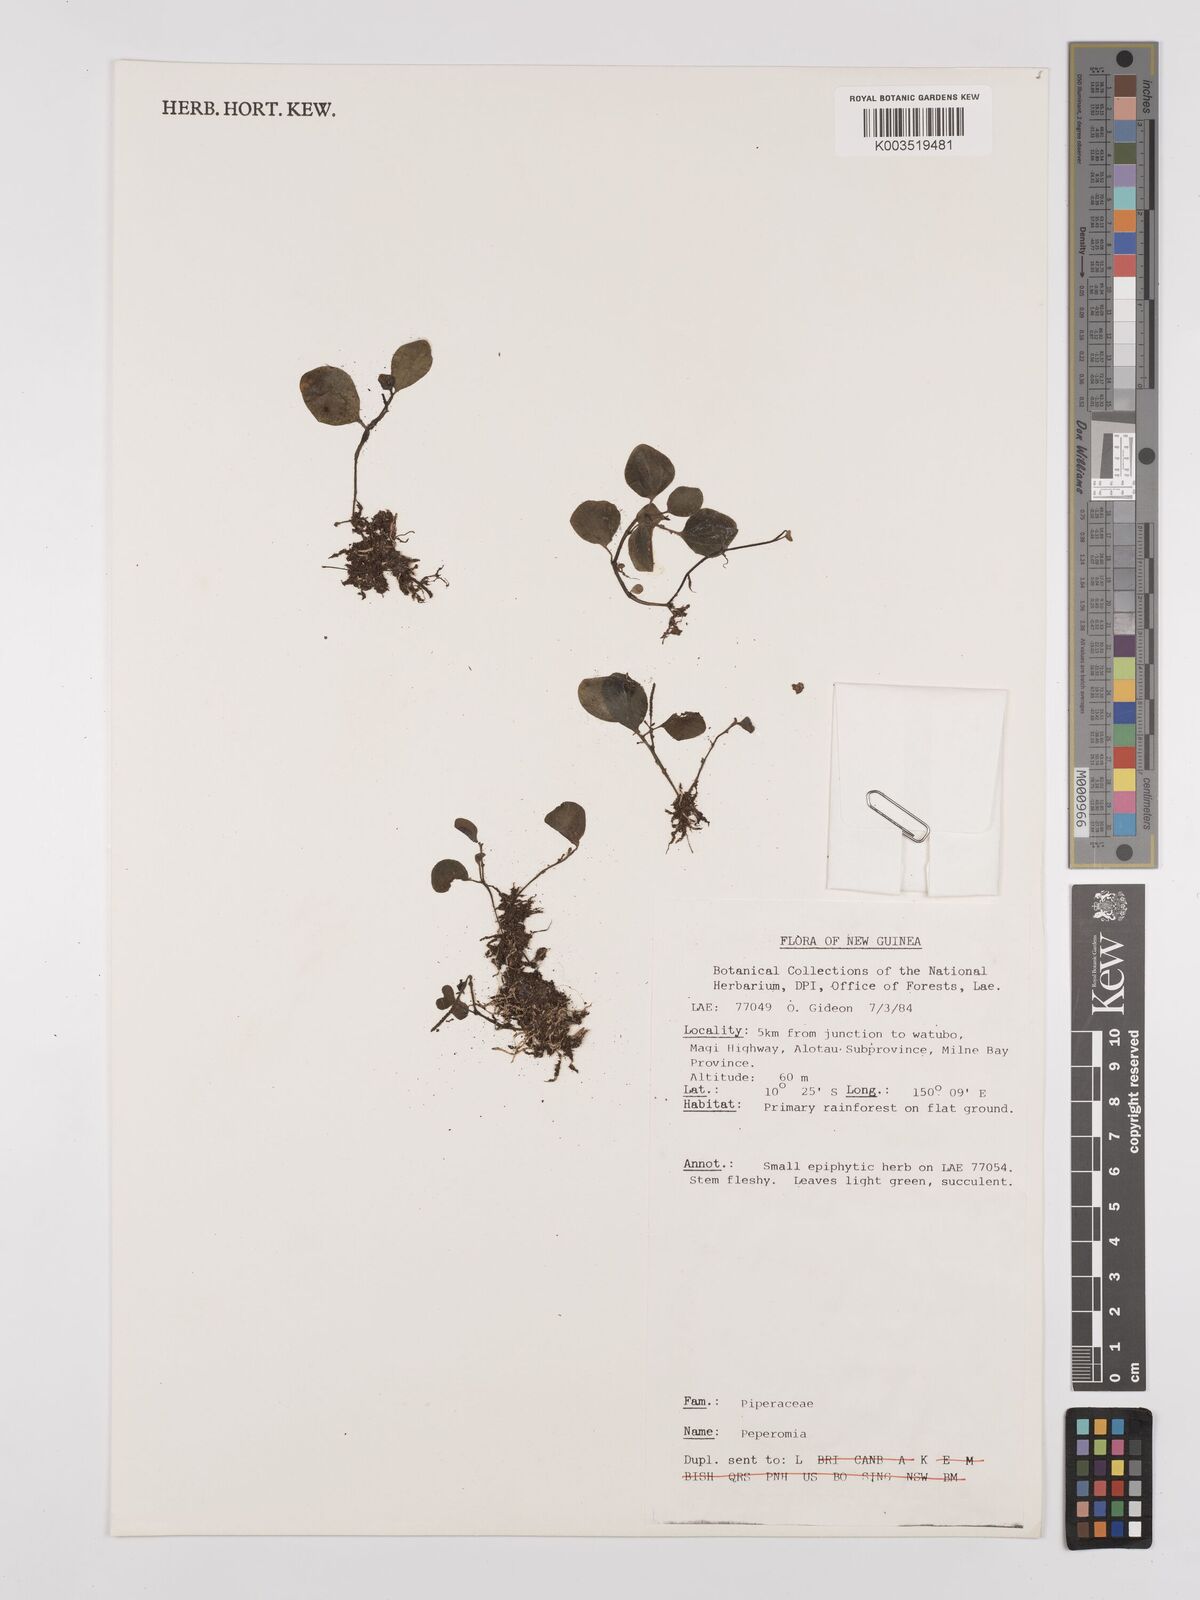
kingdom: Plantae
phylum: Tracheophyta
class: Magnoliopsida
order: Piperales
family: Piperaceae
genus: Peperomia
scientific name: Peperomia
